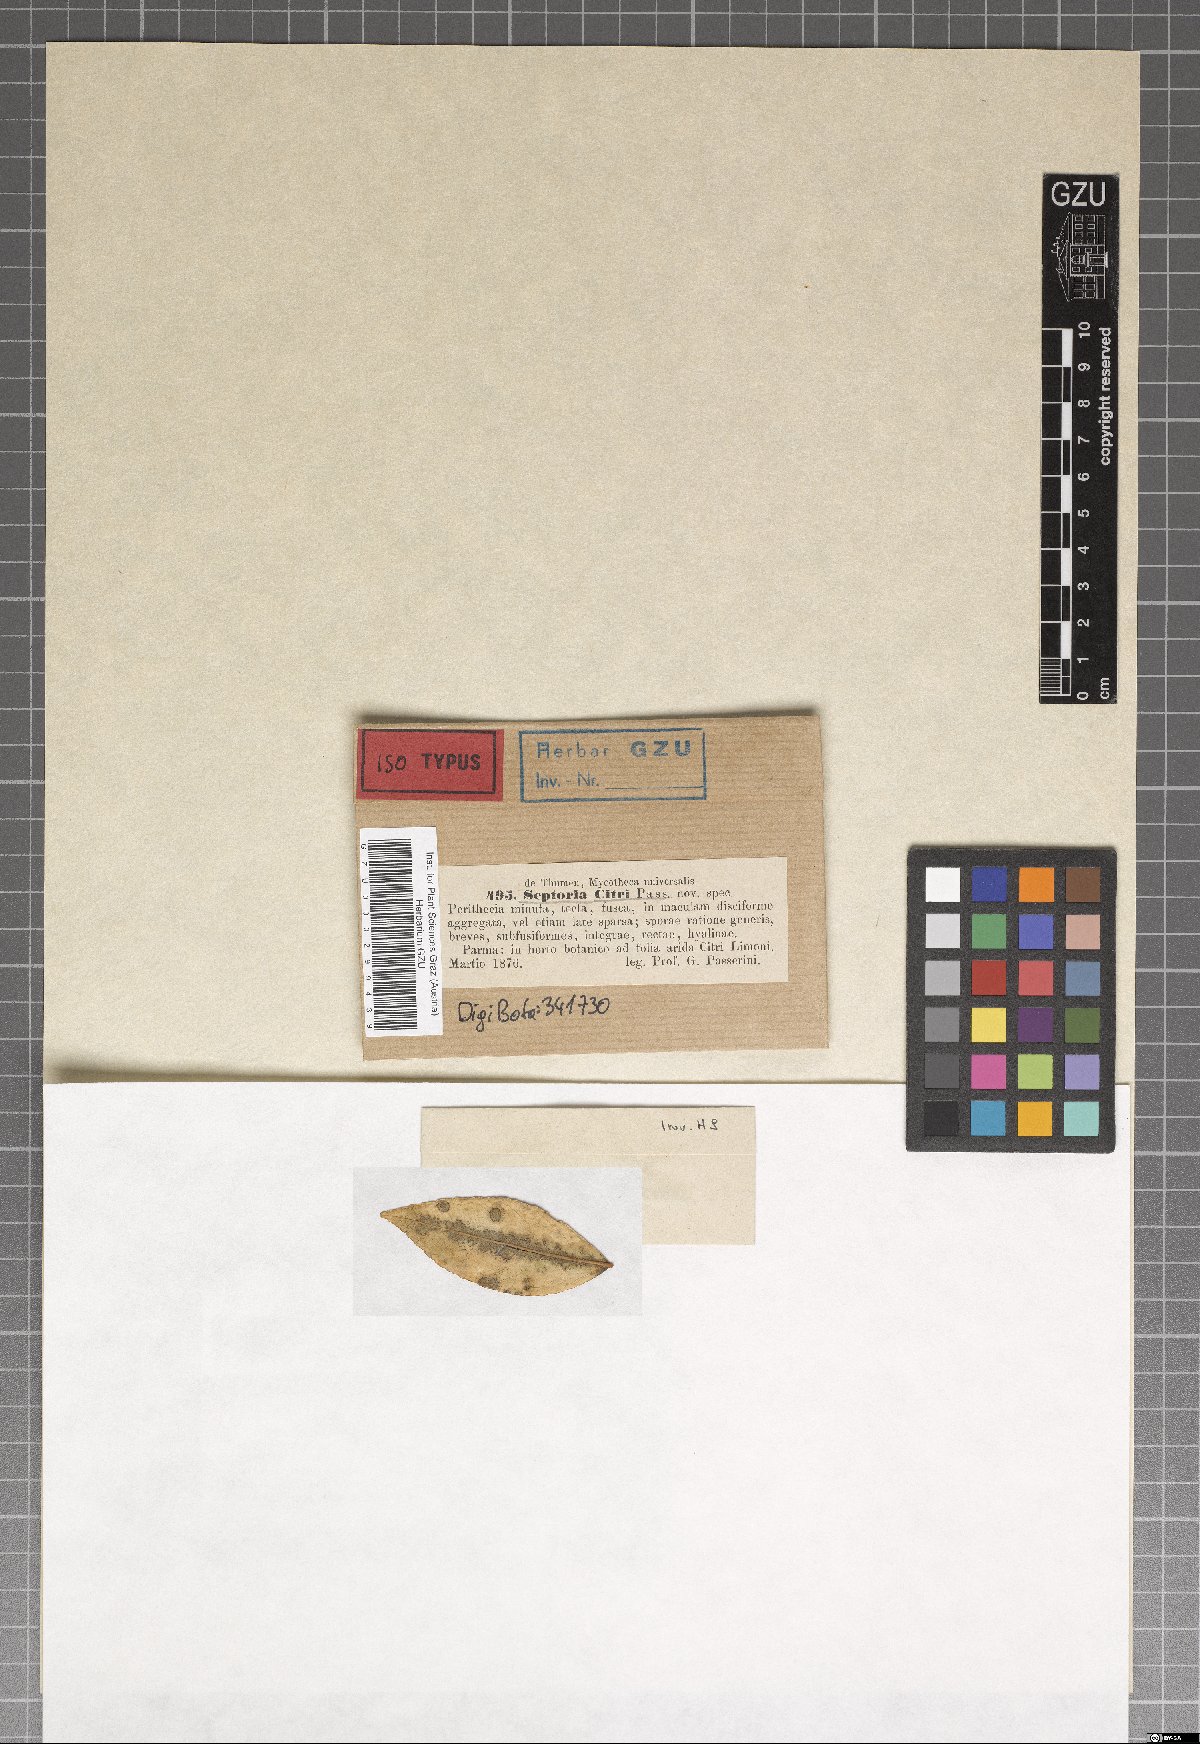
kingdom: Fungi
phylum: Ascomycota
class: Dothideomycetes
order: Mycosphaerellales
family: Mycosphaerellaceae
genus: Septoria
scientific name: Septoria citri
